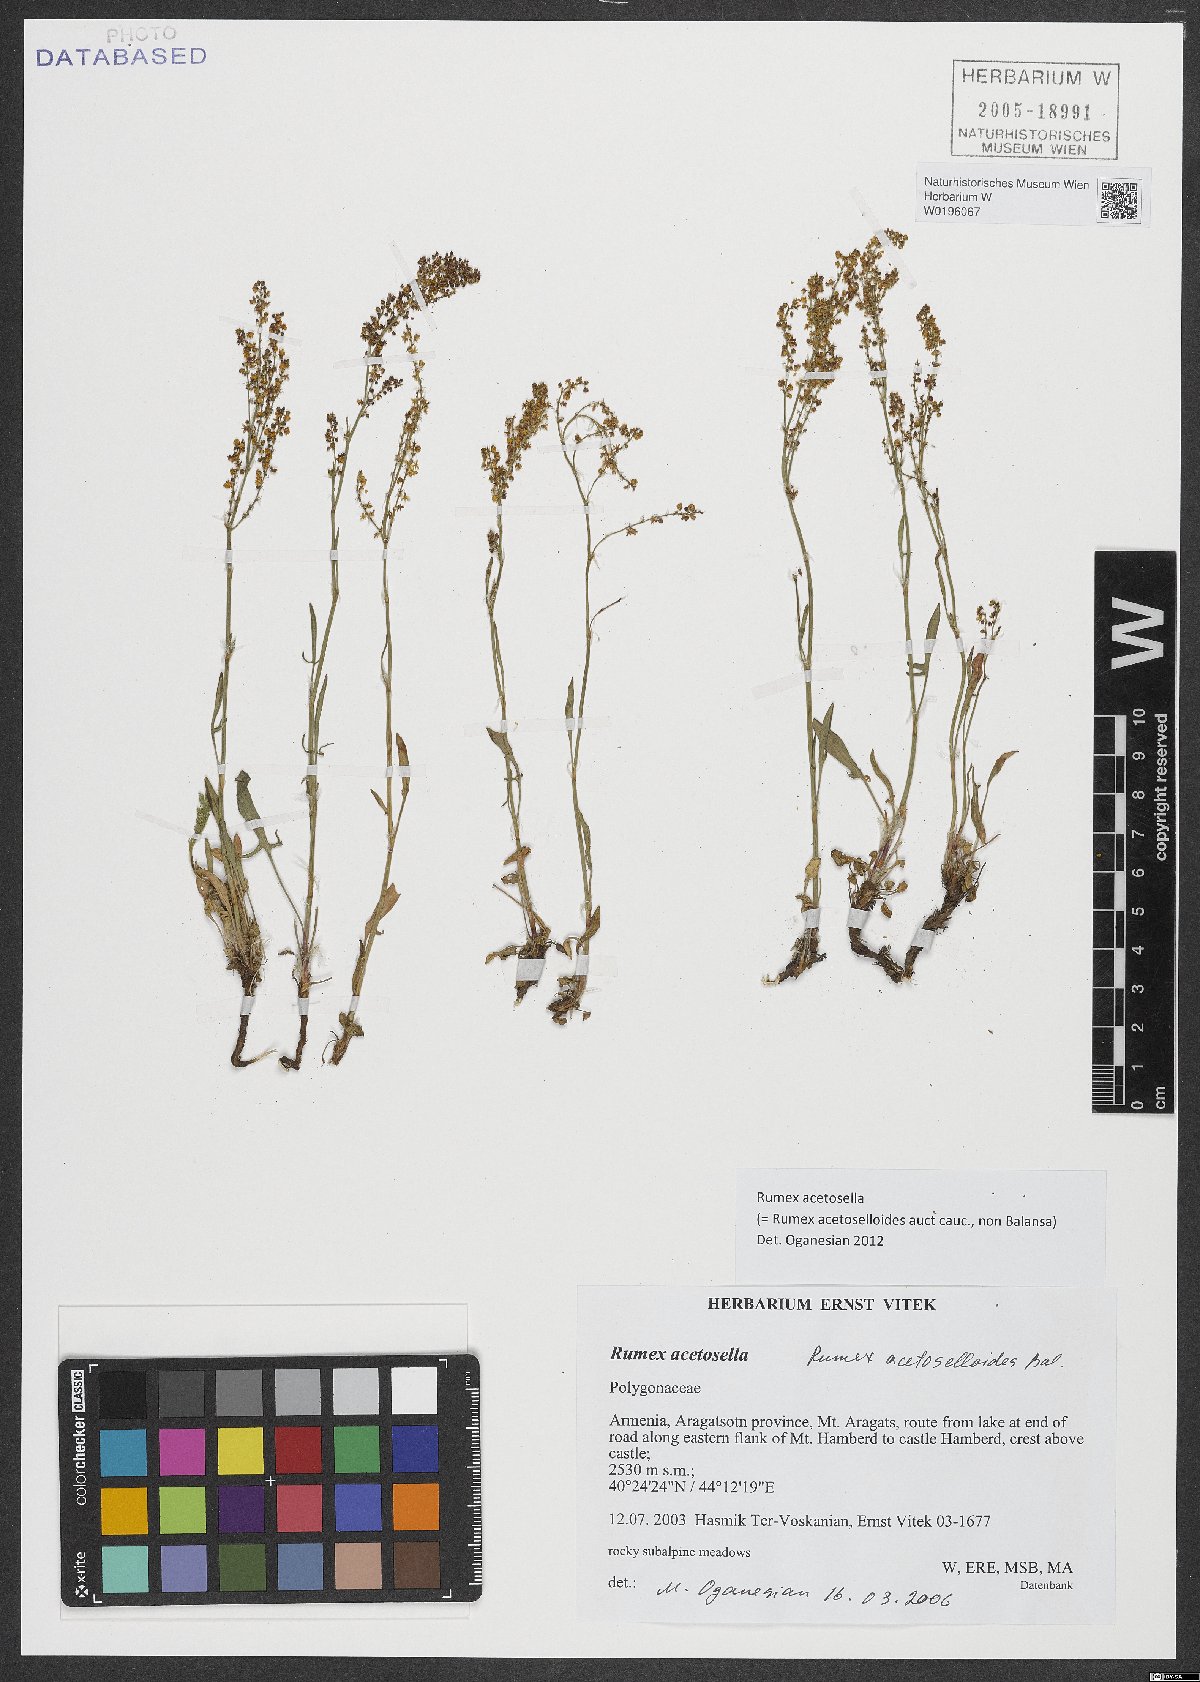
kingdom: Plantae
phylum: Tracheophyta
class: Magnoliopsida
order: Caryophyllales
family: Polygonaceae
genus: Rumex
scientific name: Rumex acetosella
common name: Common sheep sorrel
